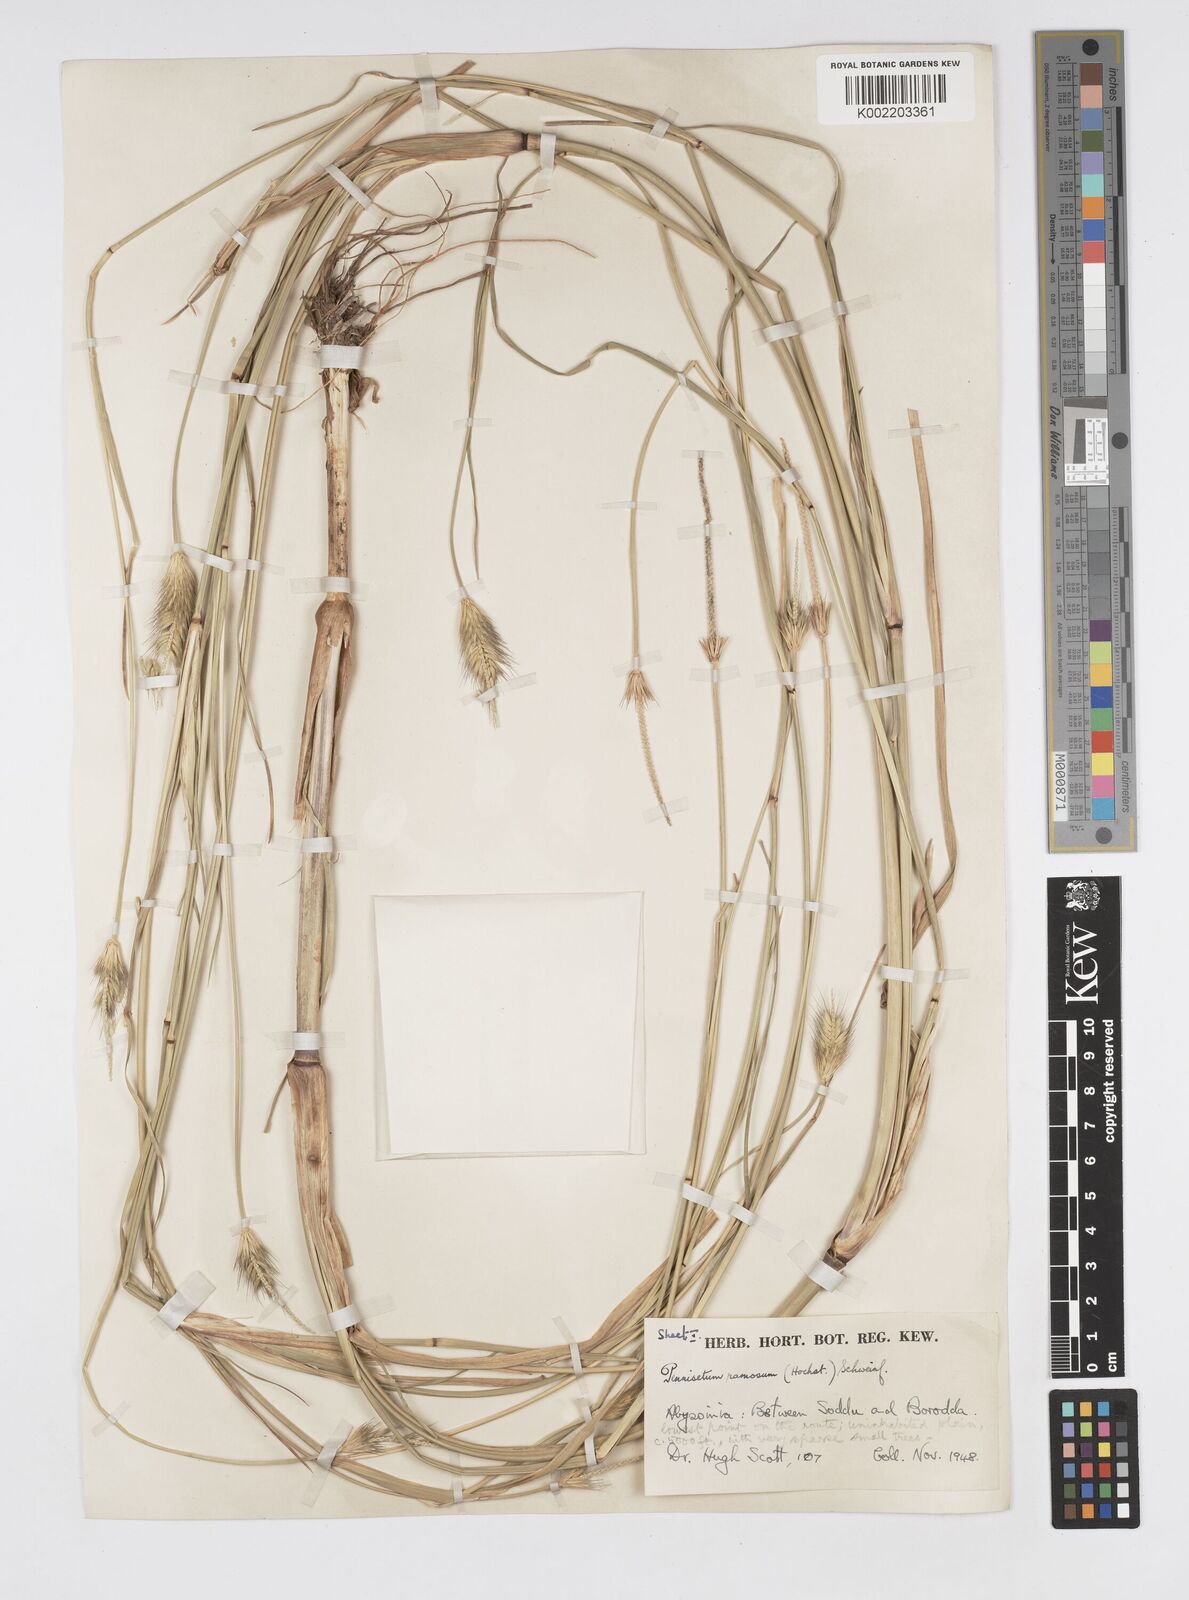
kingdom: Plantae
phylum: Tracheophyta
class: Liliopsida
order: Poales
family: Poaceae
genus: Cenchrus
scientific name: Cenchrus ramosus
